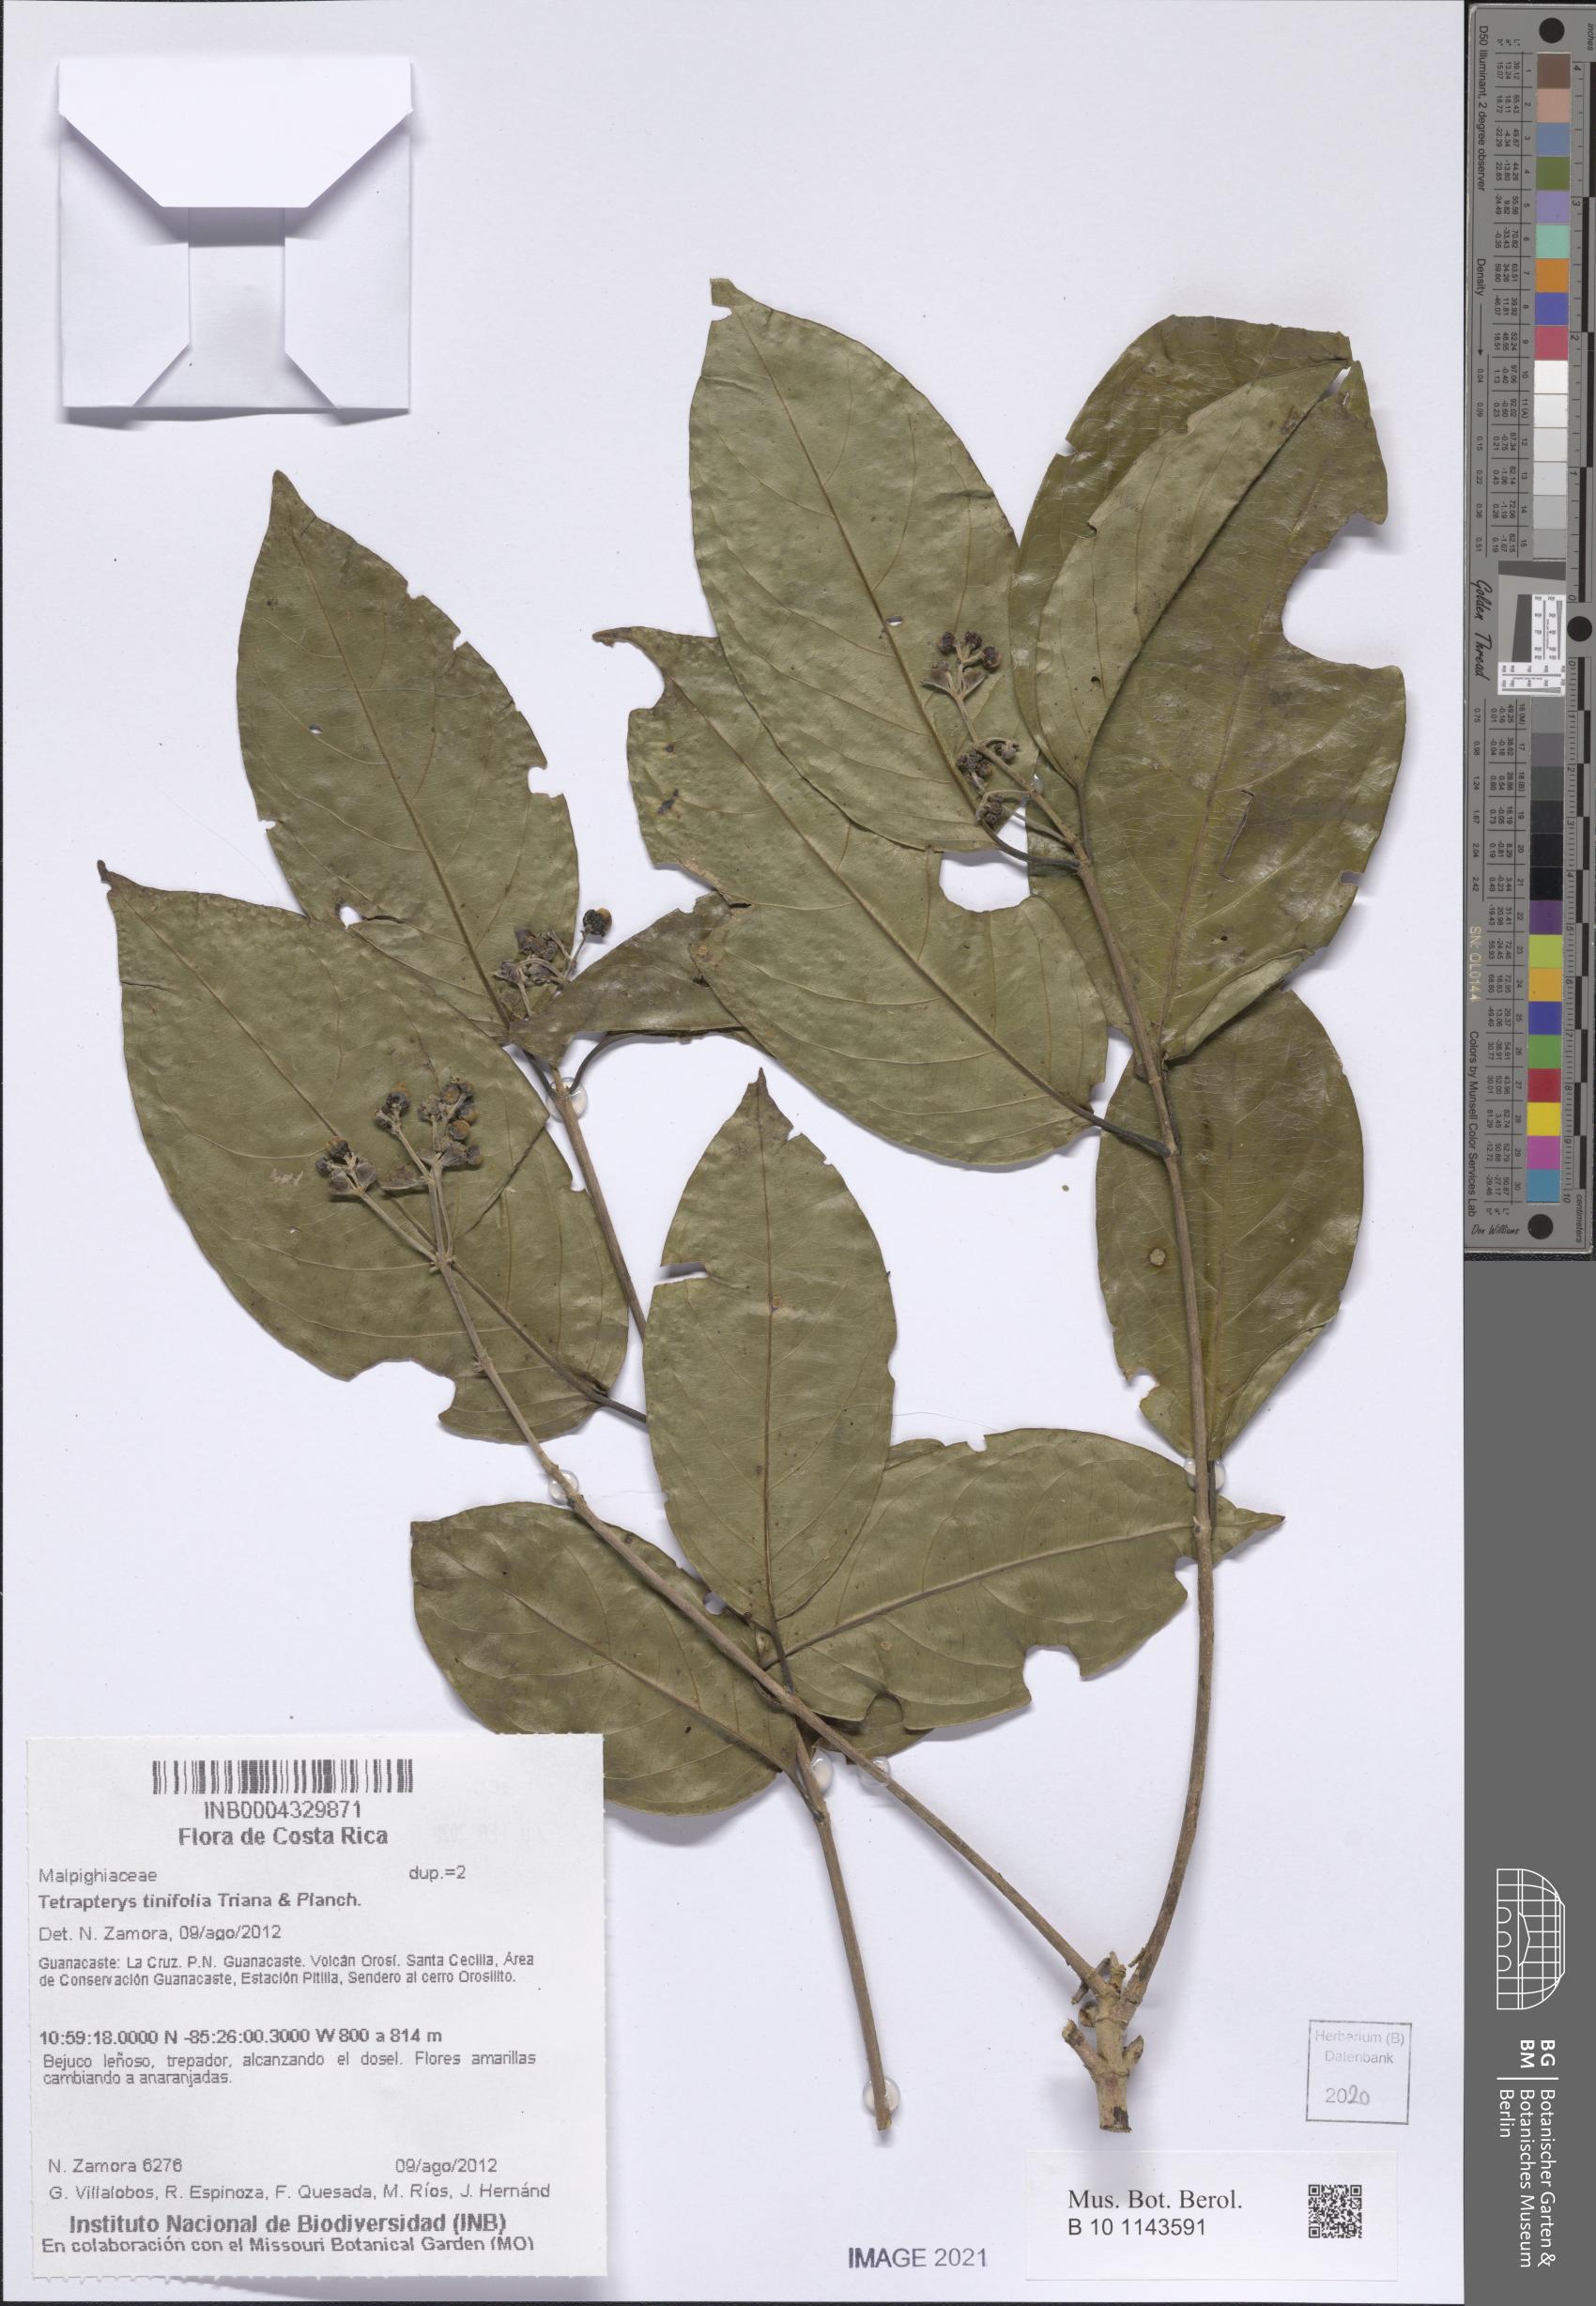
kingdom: Plantae
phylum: Tracheophyta
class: Magnoliopsida
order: Malpighiales
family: Malpighiaceae
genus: Tetrapterys
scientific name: Tetrapterys tinifolia
